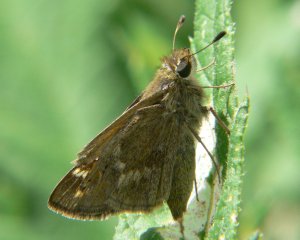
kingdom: Animalia
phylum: Arthropoda
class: Insecta
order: Lepidoptera
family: Hesperiidae
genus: Atalopedes
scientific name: Atalopedes campestris
